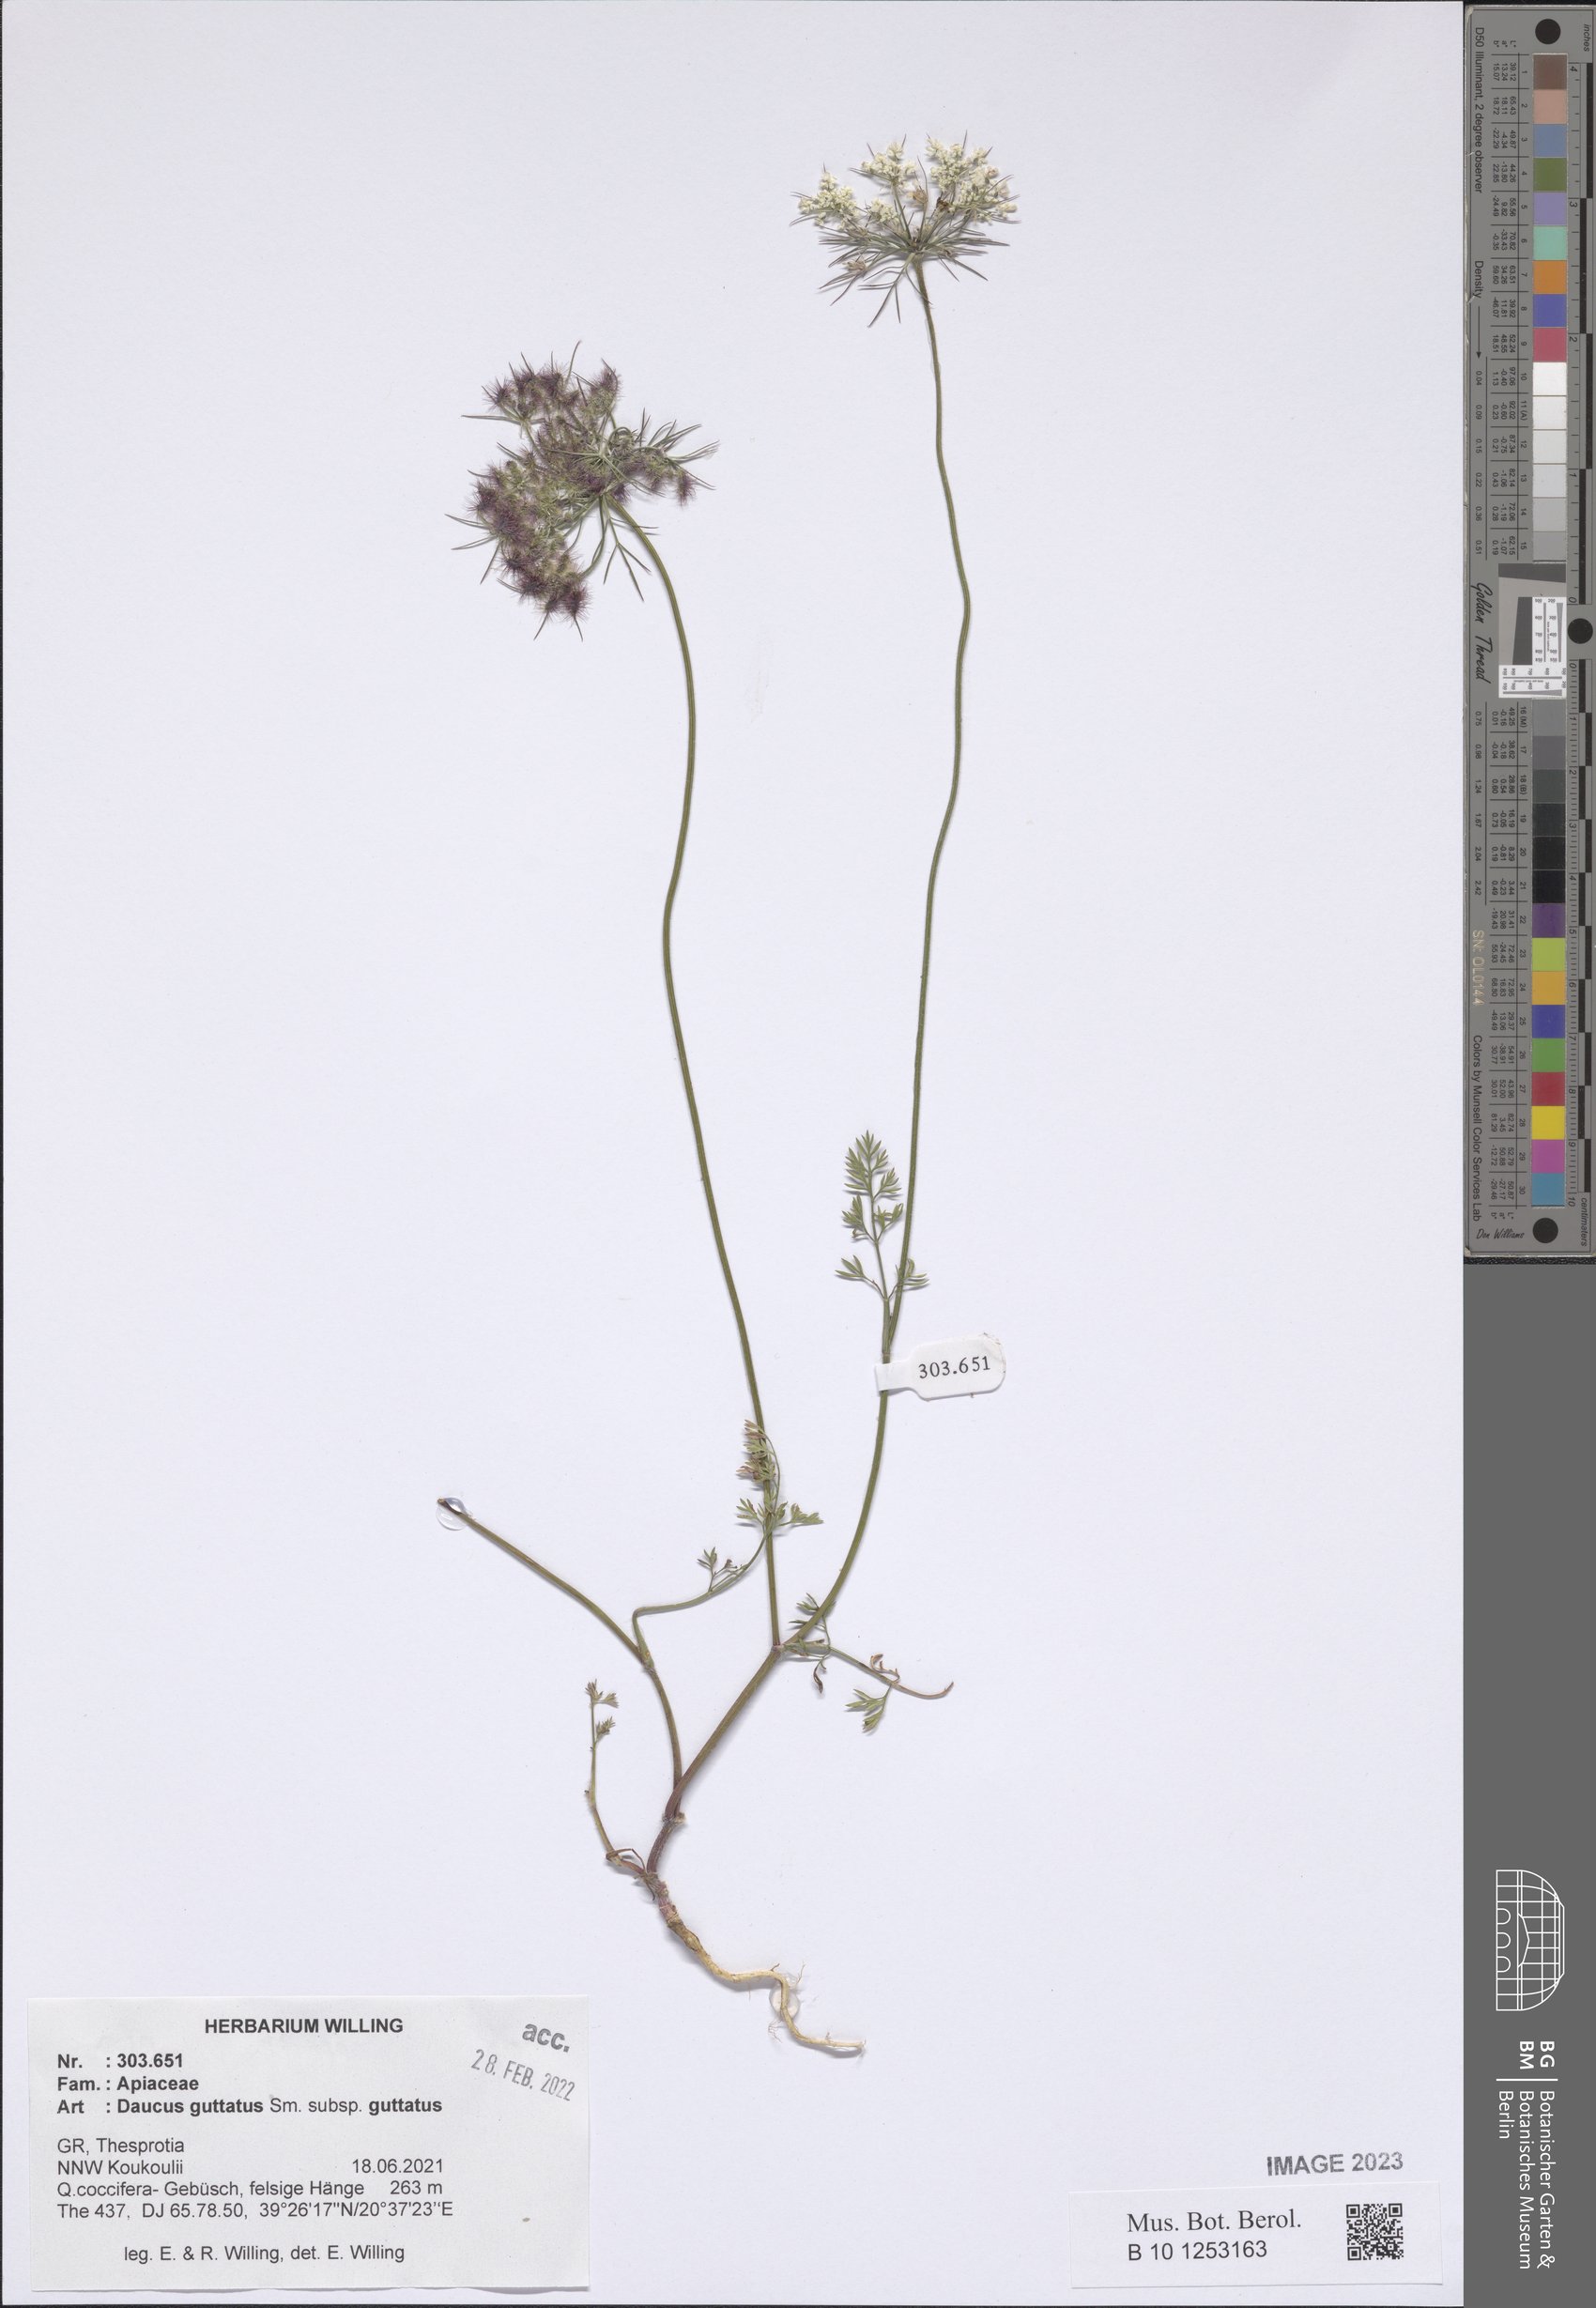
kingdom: Plantae
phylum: Tracheophyta
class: Magnoliopsida
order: Apiales
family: Apiaceae
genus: Daucus
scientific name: Daucus guttatus
